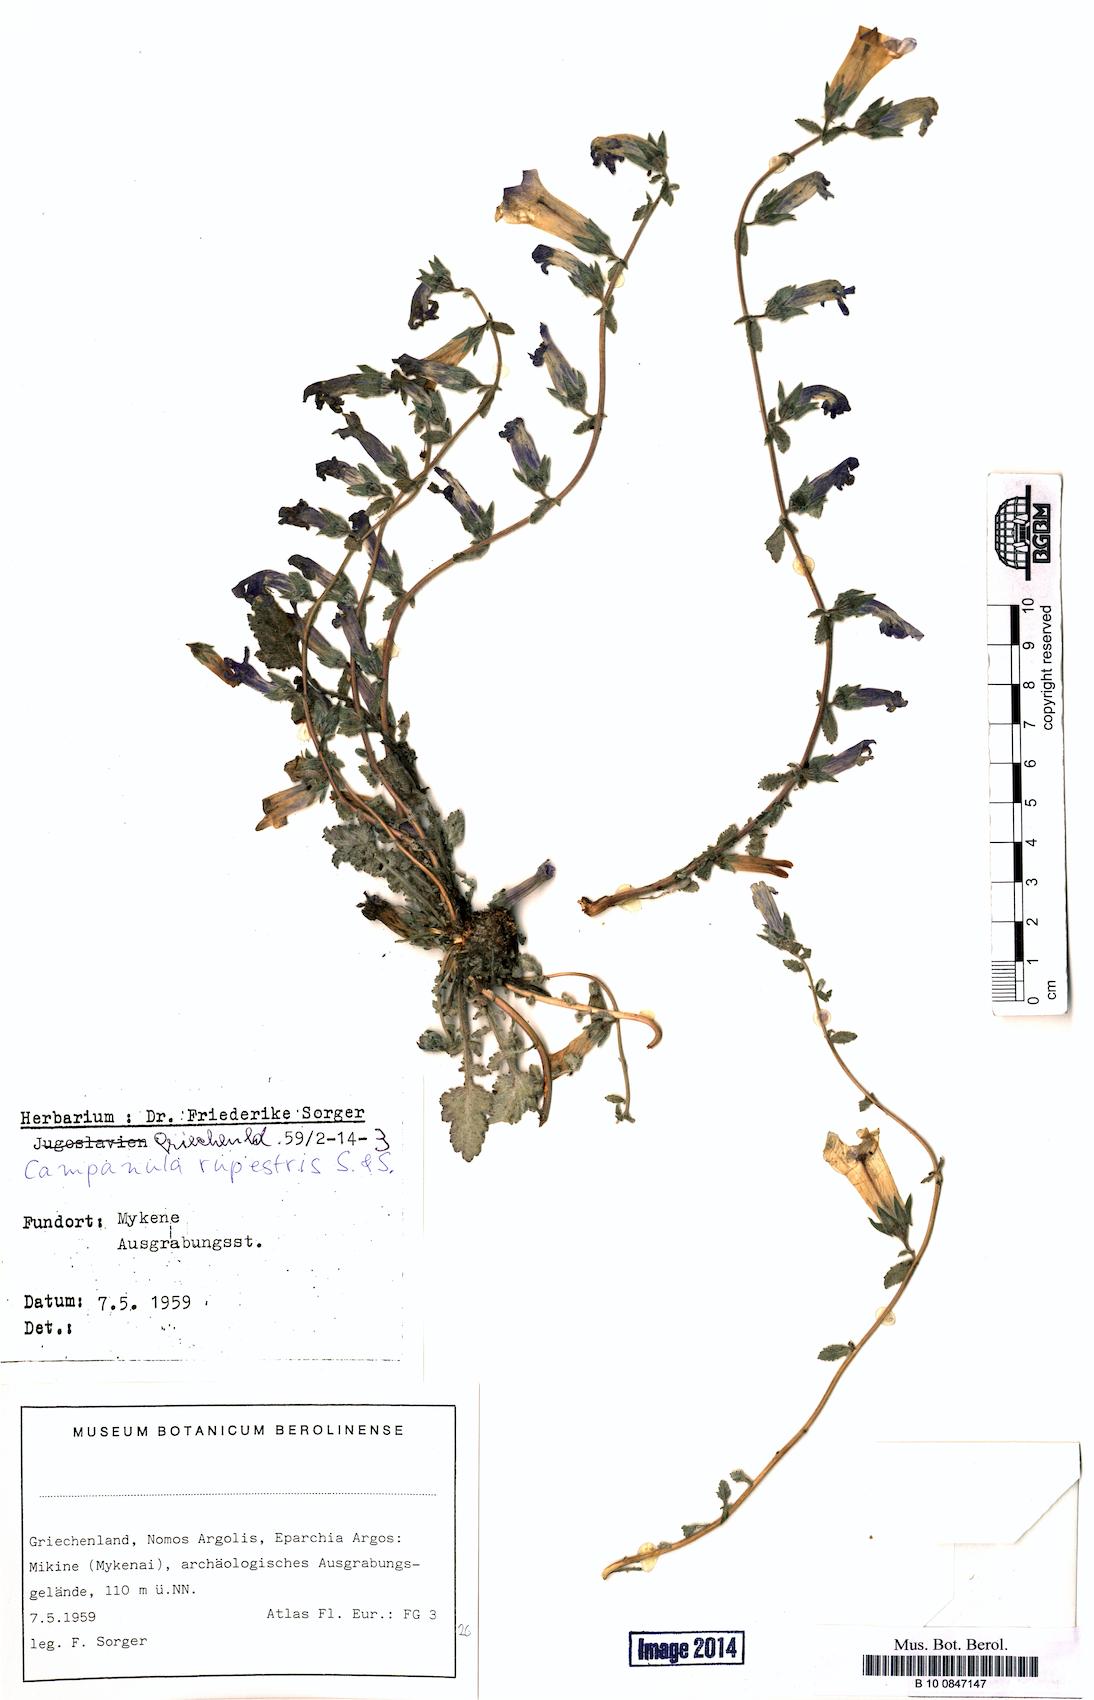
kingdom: Plantae
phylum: Tracheophyta
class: Magnoliopsida
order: Asterales
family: Campanulaceae
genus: Campanula
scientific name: Campanula rupestris
